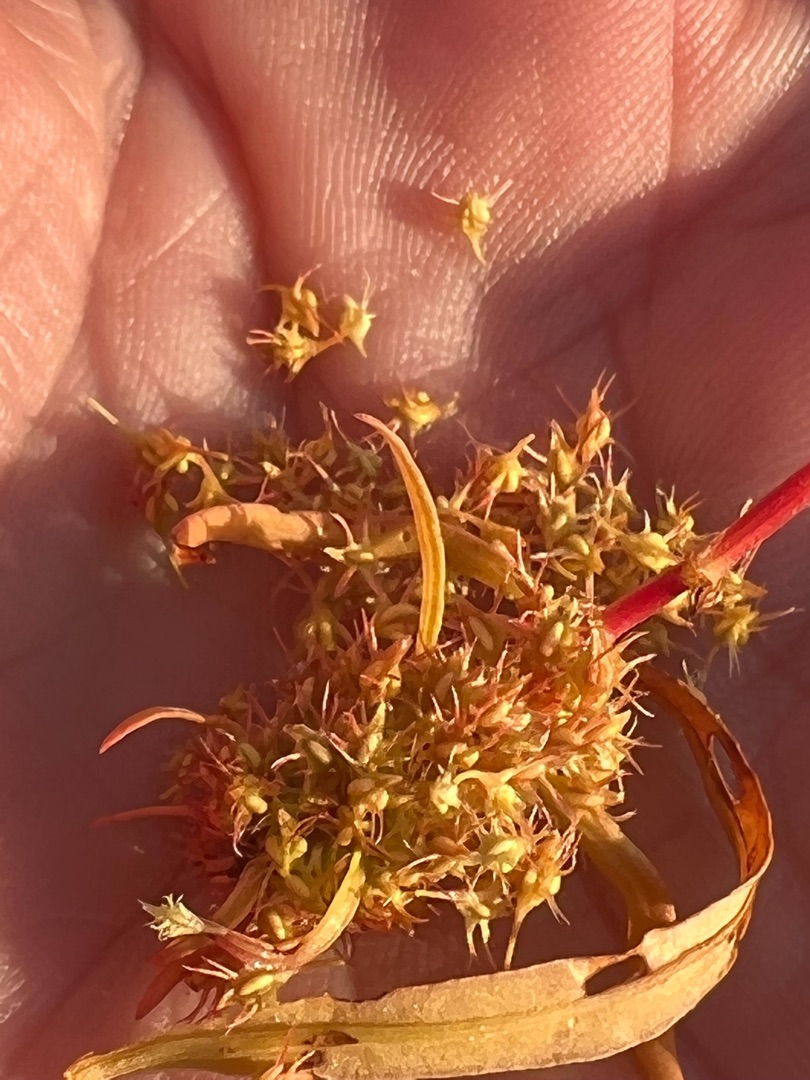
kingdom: Plantae
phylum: Tracheophyta
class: Magnoliopsida
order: Caryophyllales
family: Polygonaceae
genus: Rumex
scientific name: Rumex maritimus
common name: Strand-skræppe
